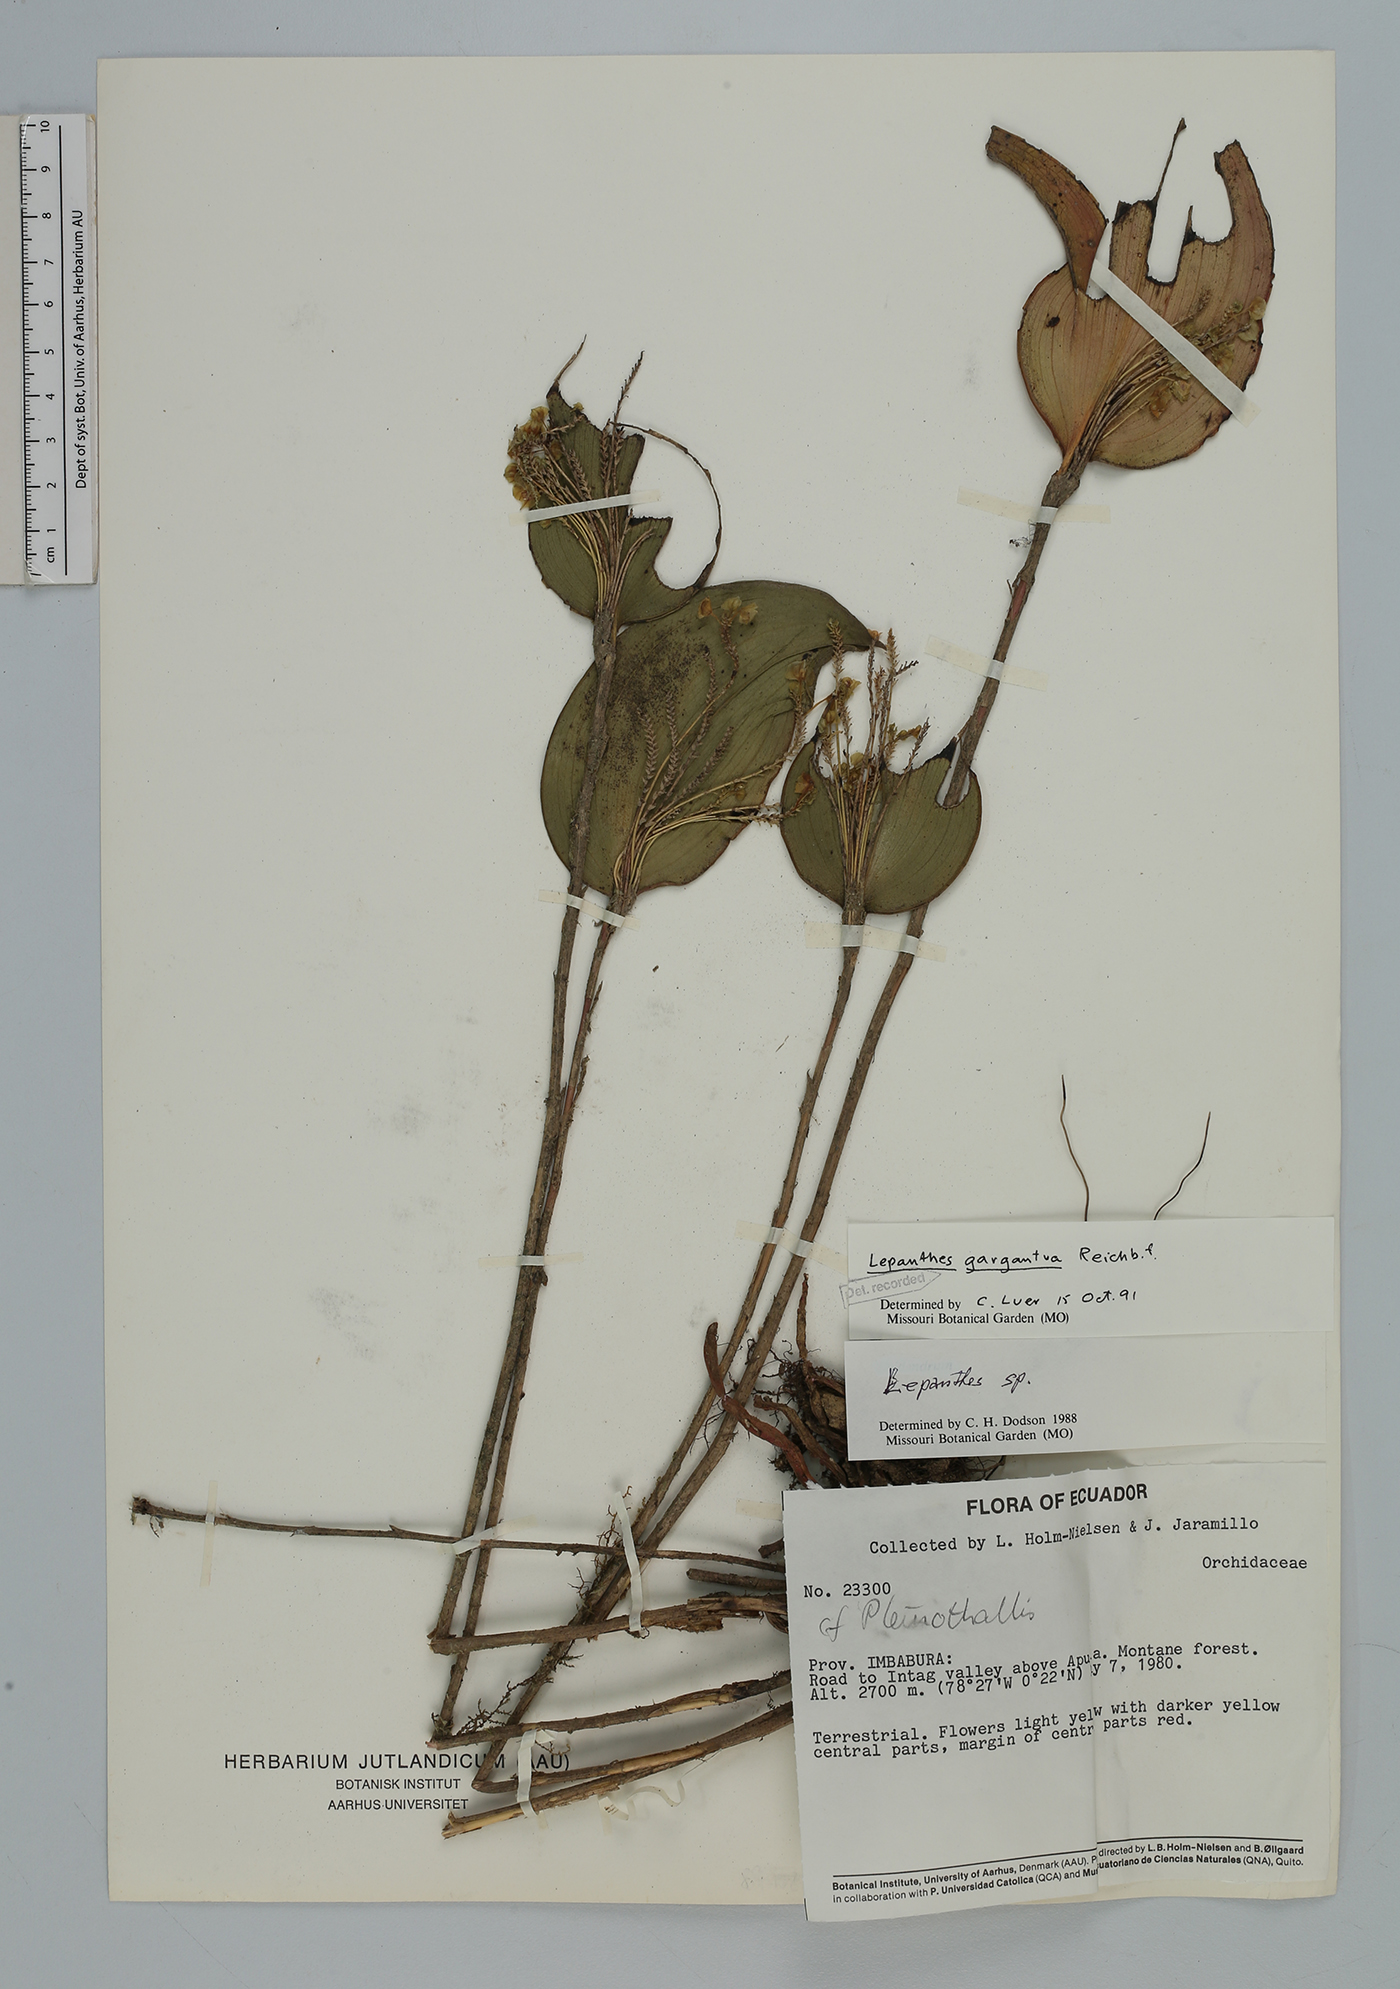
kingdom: Plantae
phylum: Tracheophyta
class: Liliopsida
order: Asparagales
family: Orchidaceae
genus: Lepanthes
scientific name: Lepanthes gargantua
